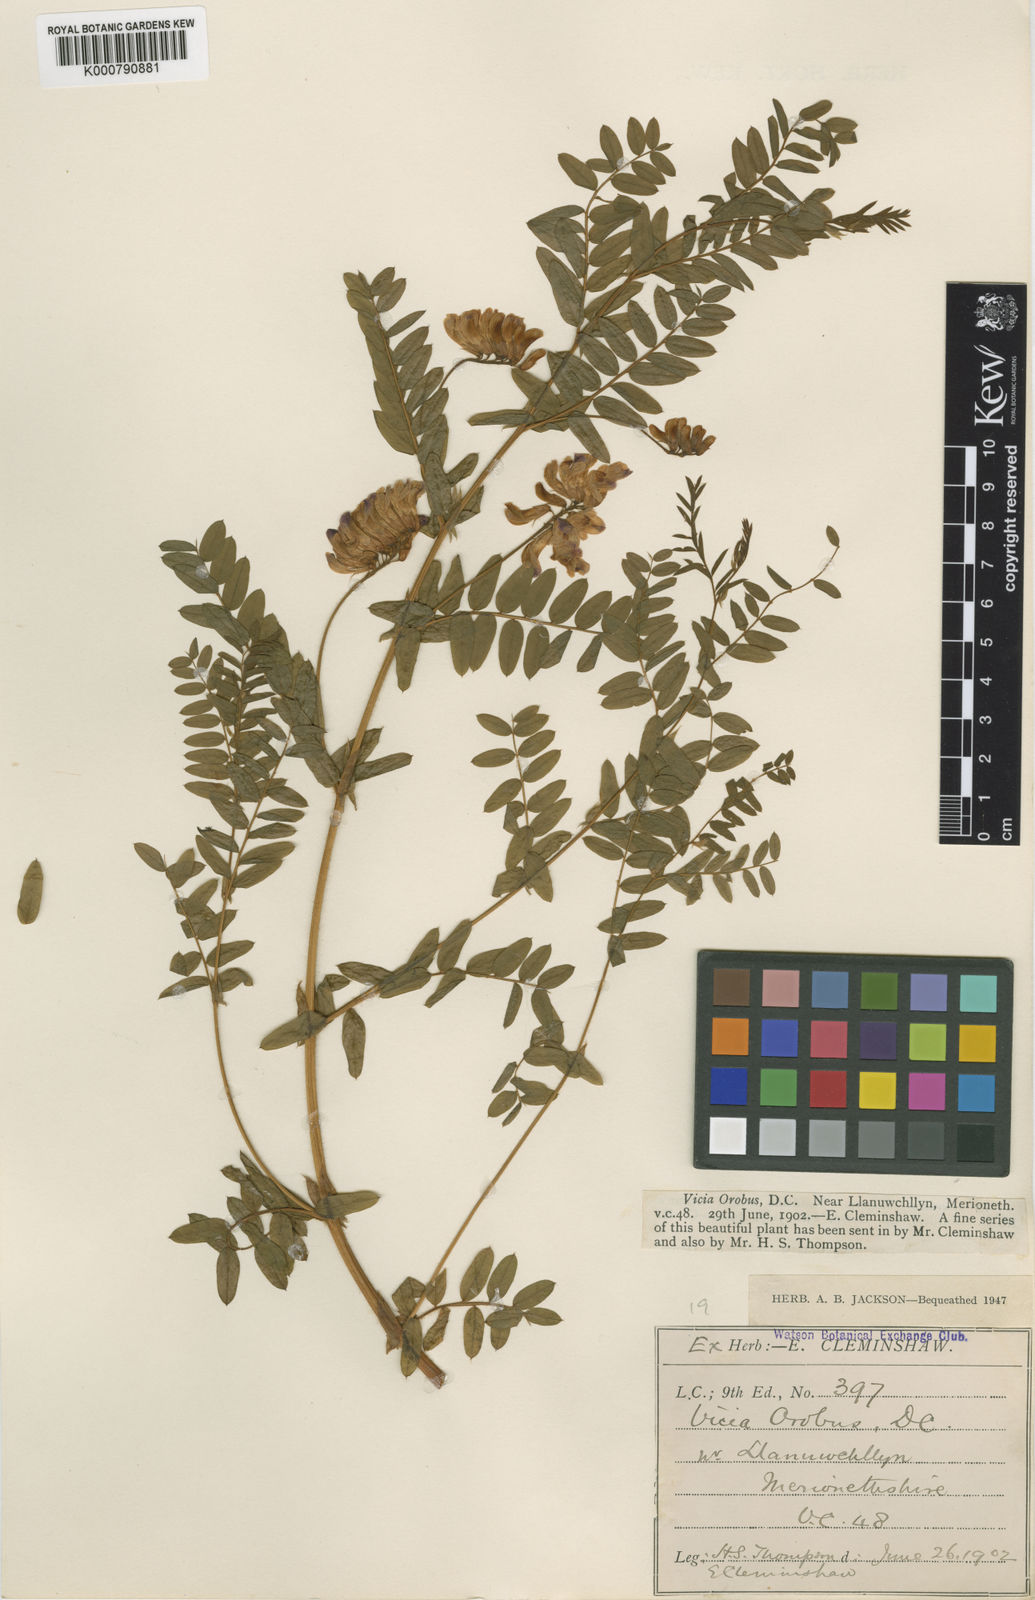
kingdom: Plantae
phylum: Tracheophyta
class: Magnoliopsida
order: Fabales
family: Fabaceae
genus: Vicia
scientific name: Vicia orobus
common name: Wood bitter-vetch
